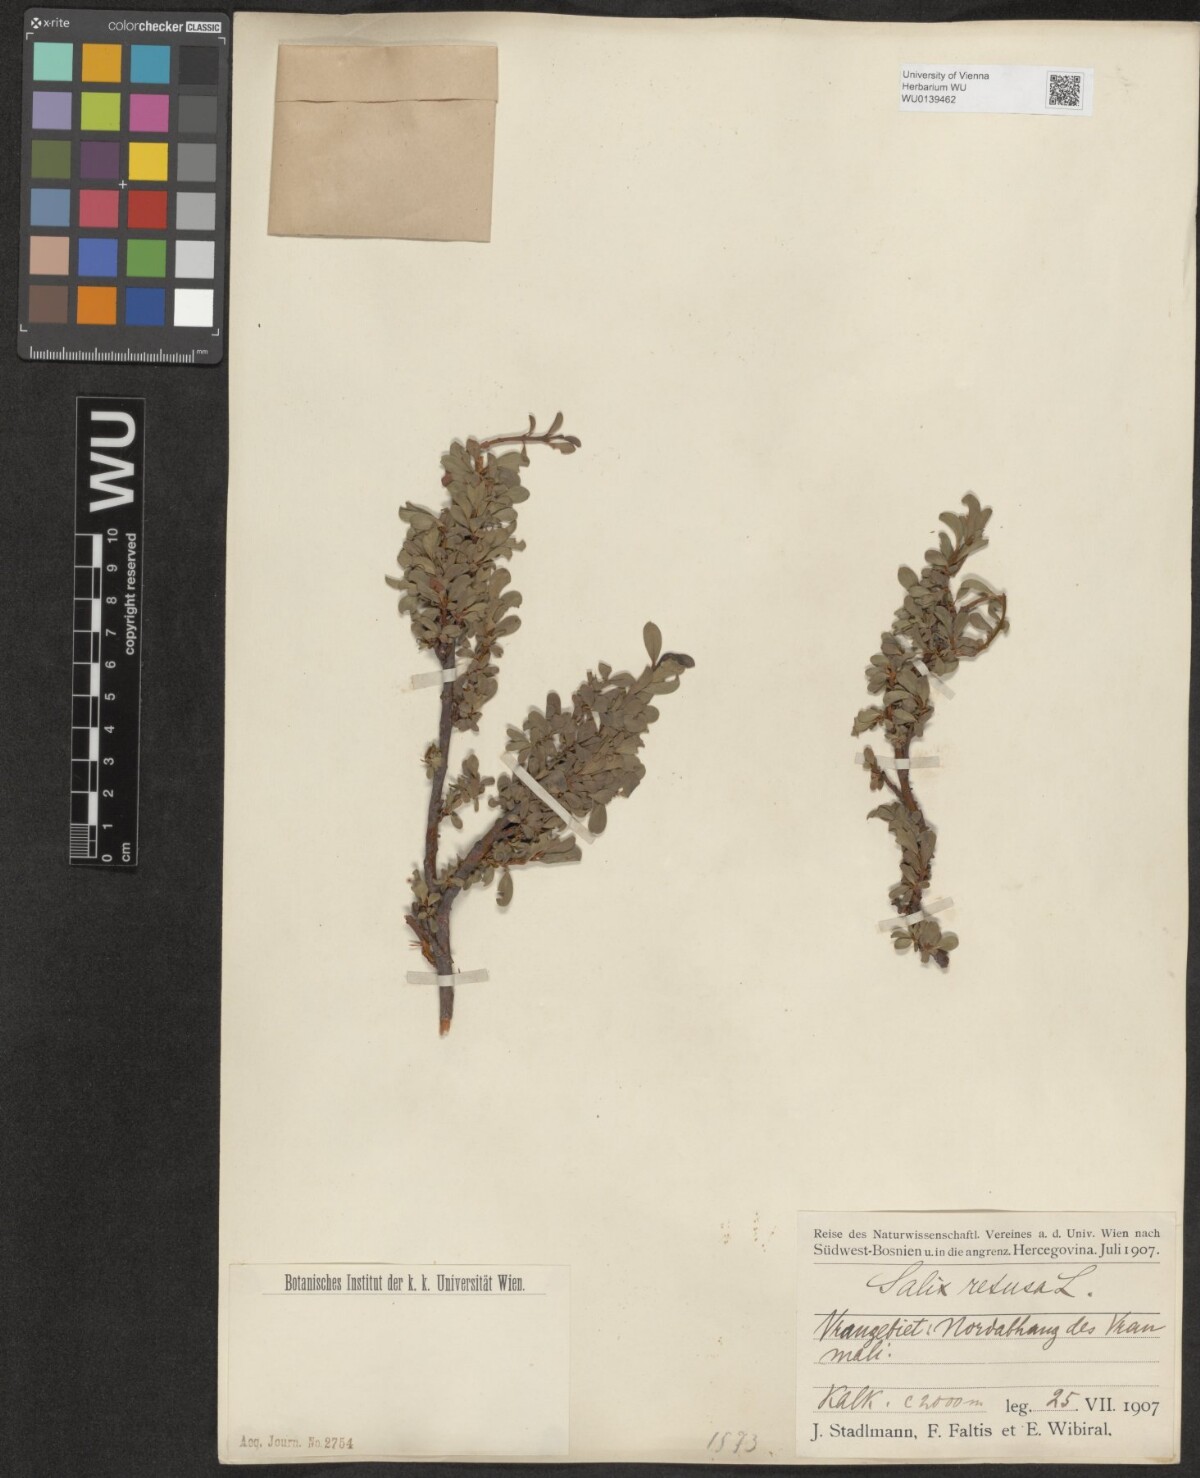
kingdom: Plantae
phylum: Tracheophyta
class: Magnoliopsida
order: Malpighiales
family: Salicaceae
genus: Salix
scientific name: Salix retusa
